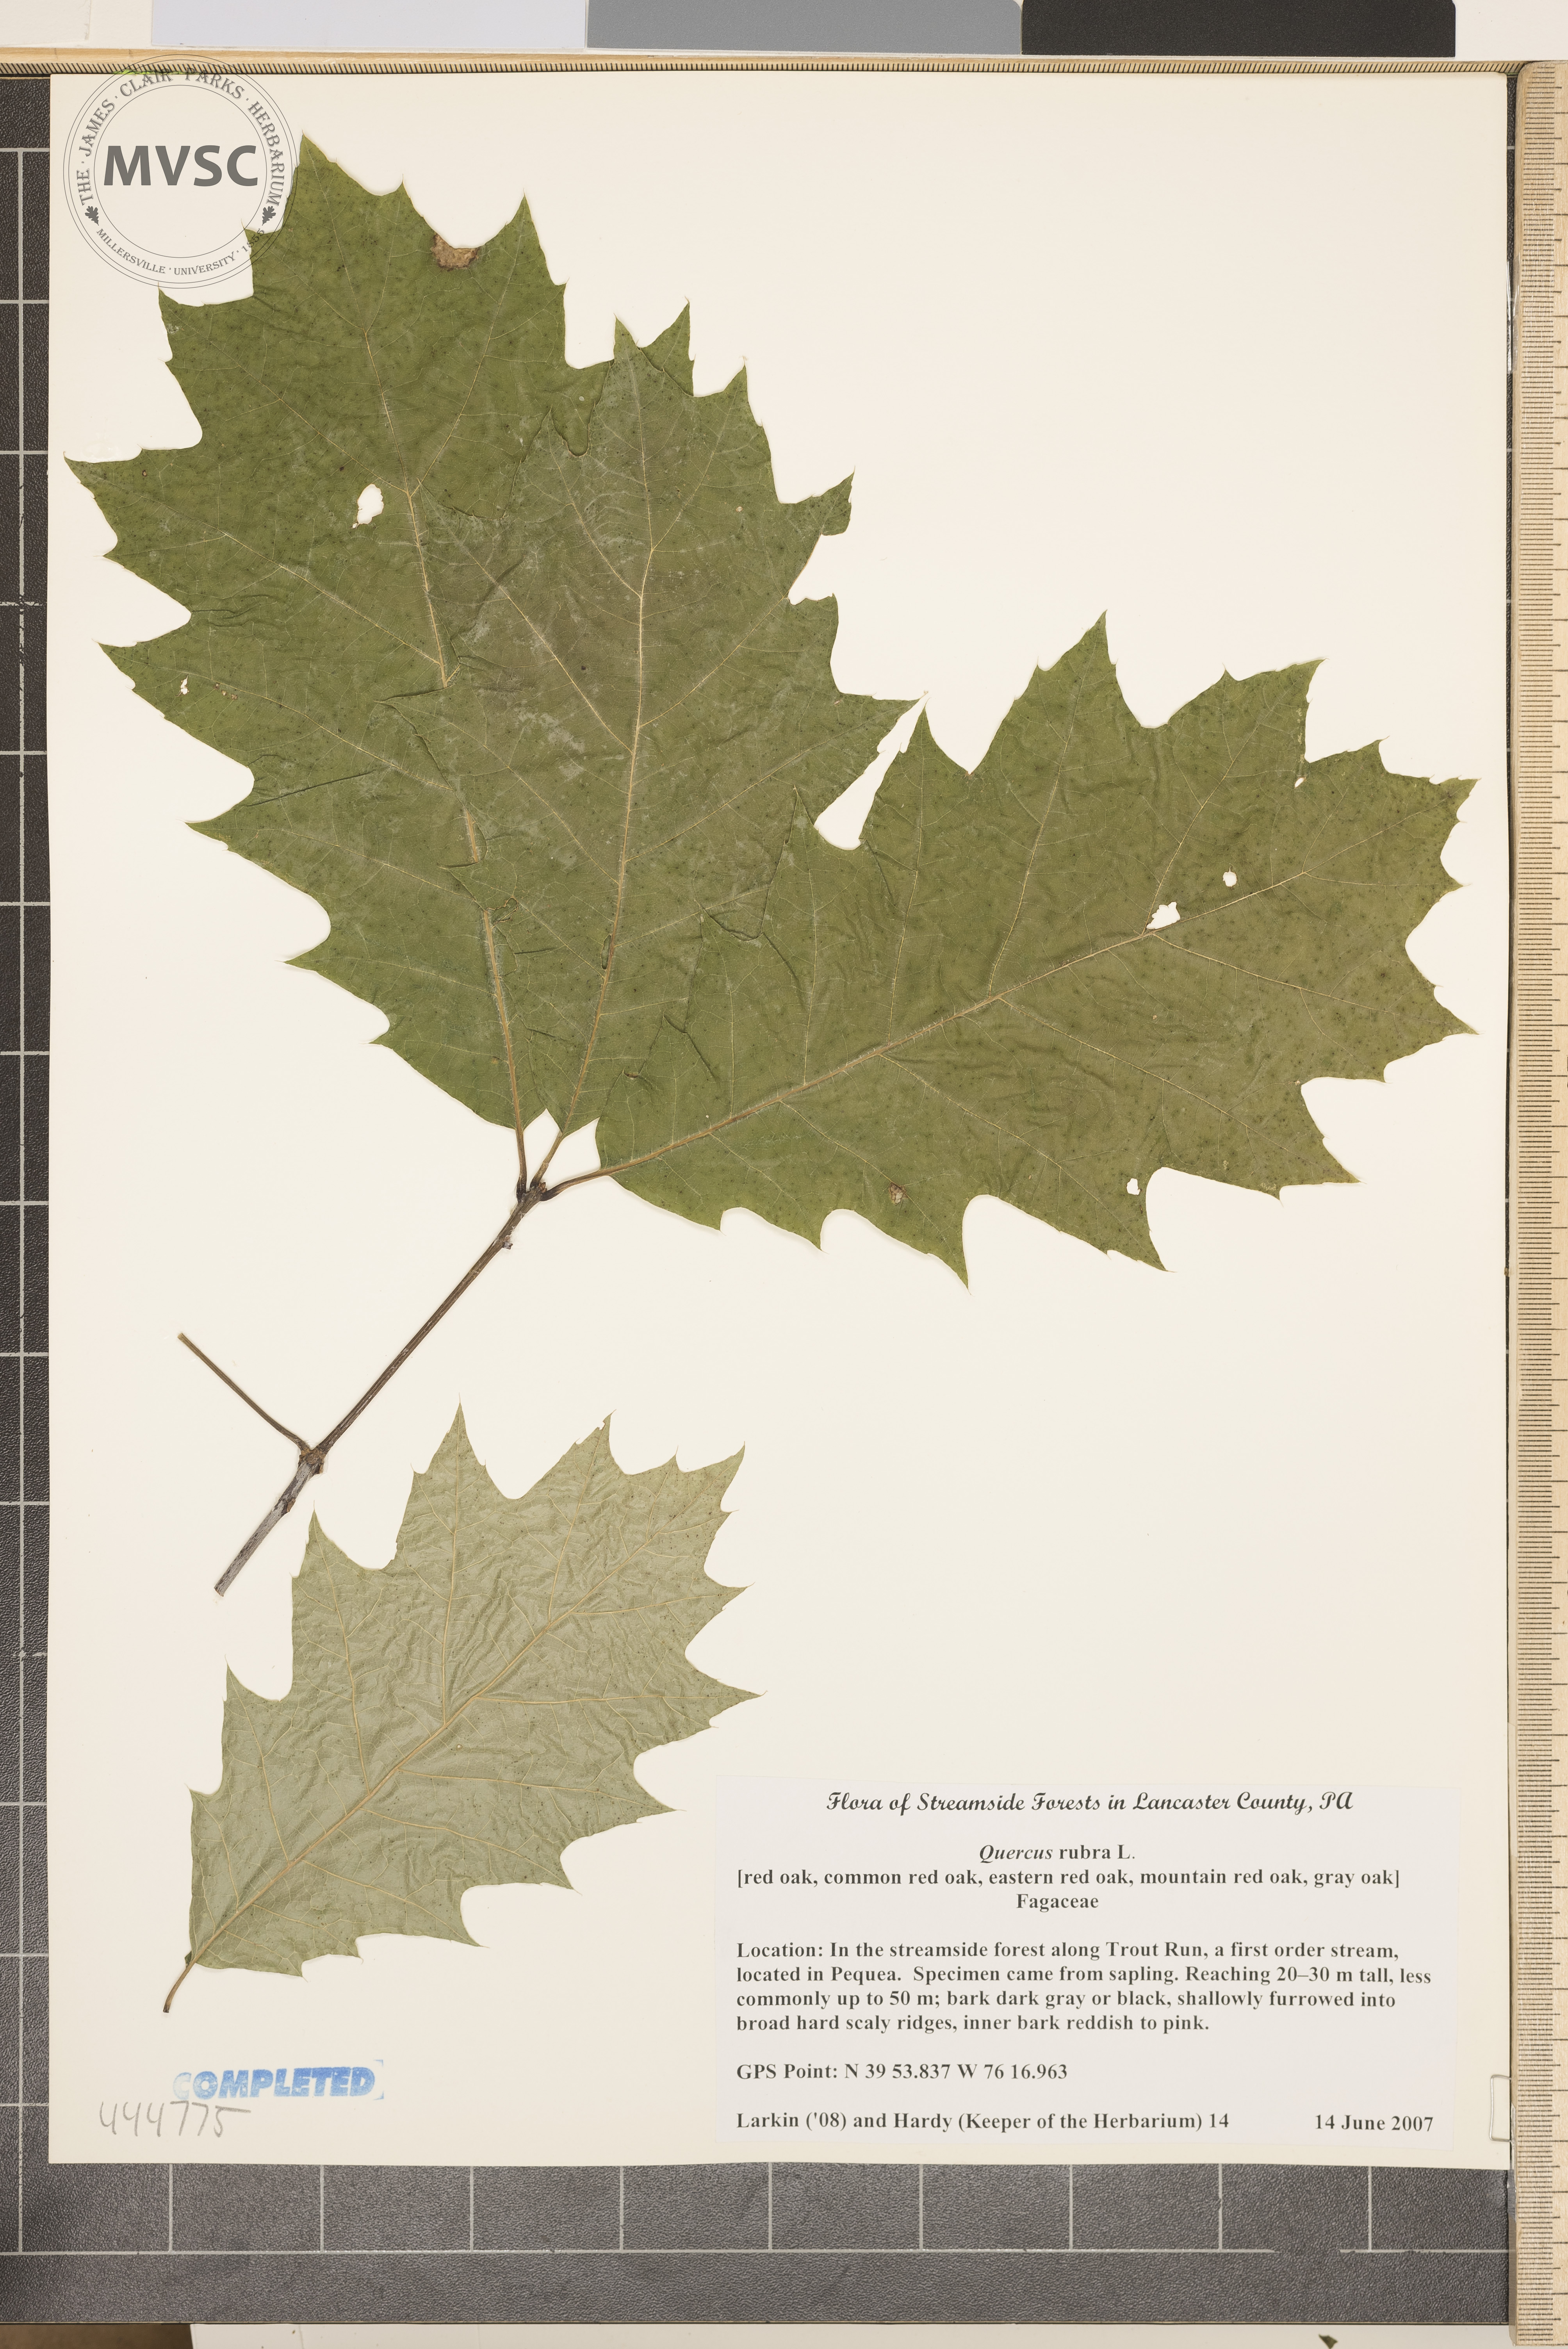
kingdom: Plantae
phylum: Tracheophyta
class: Magnoliopsida
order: Fagales
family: Fagaceae
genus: Quercus
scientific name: Quercus rubra
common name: Red Oak
